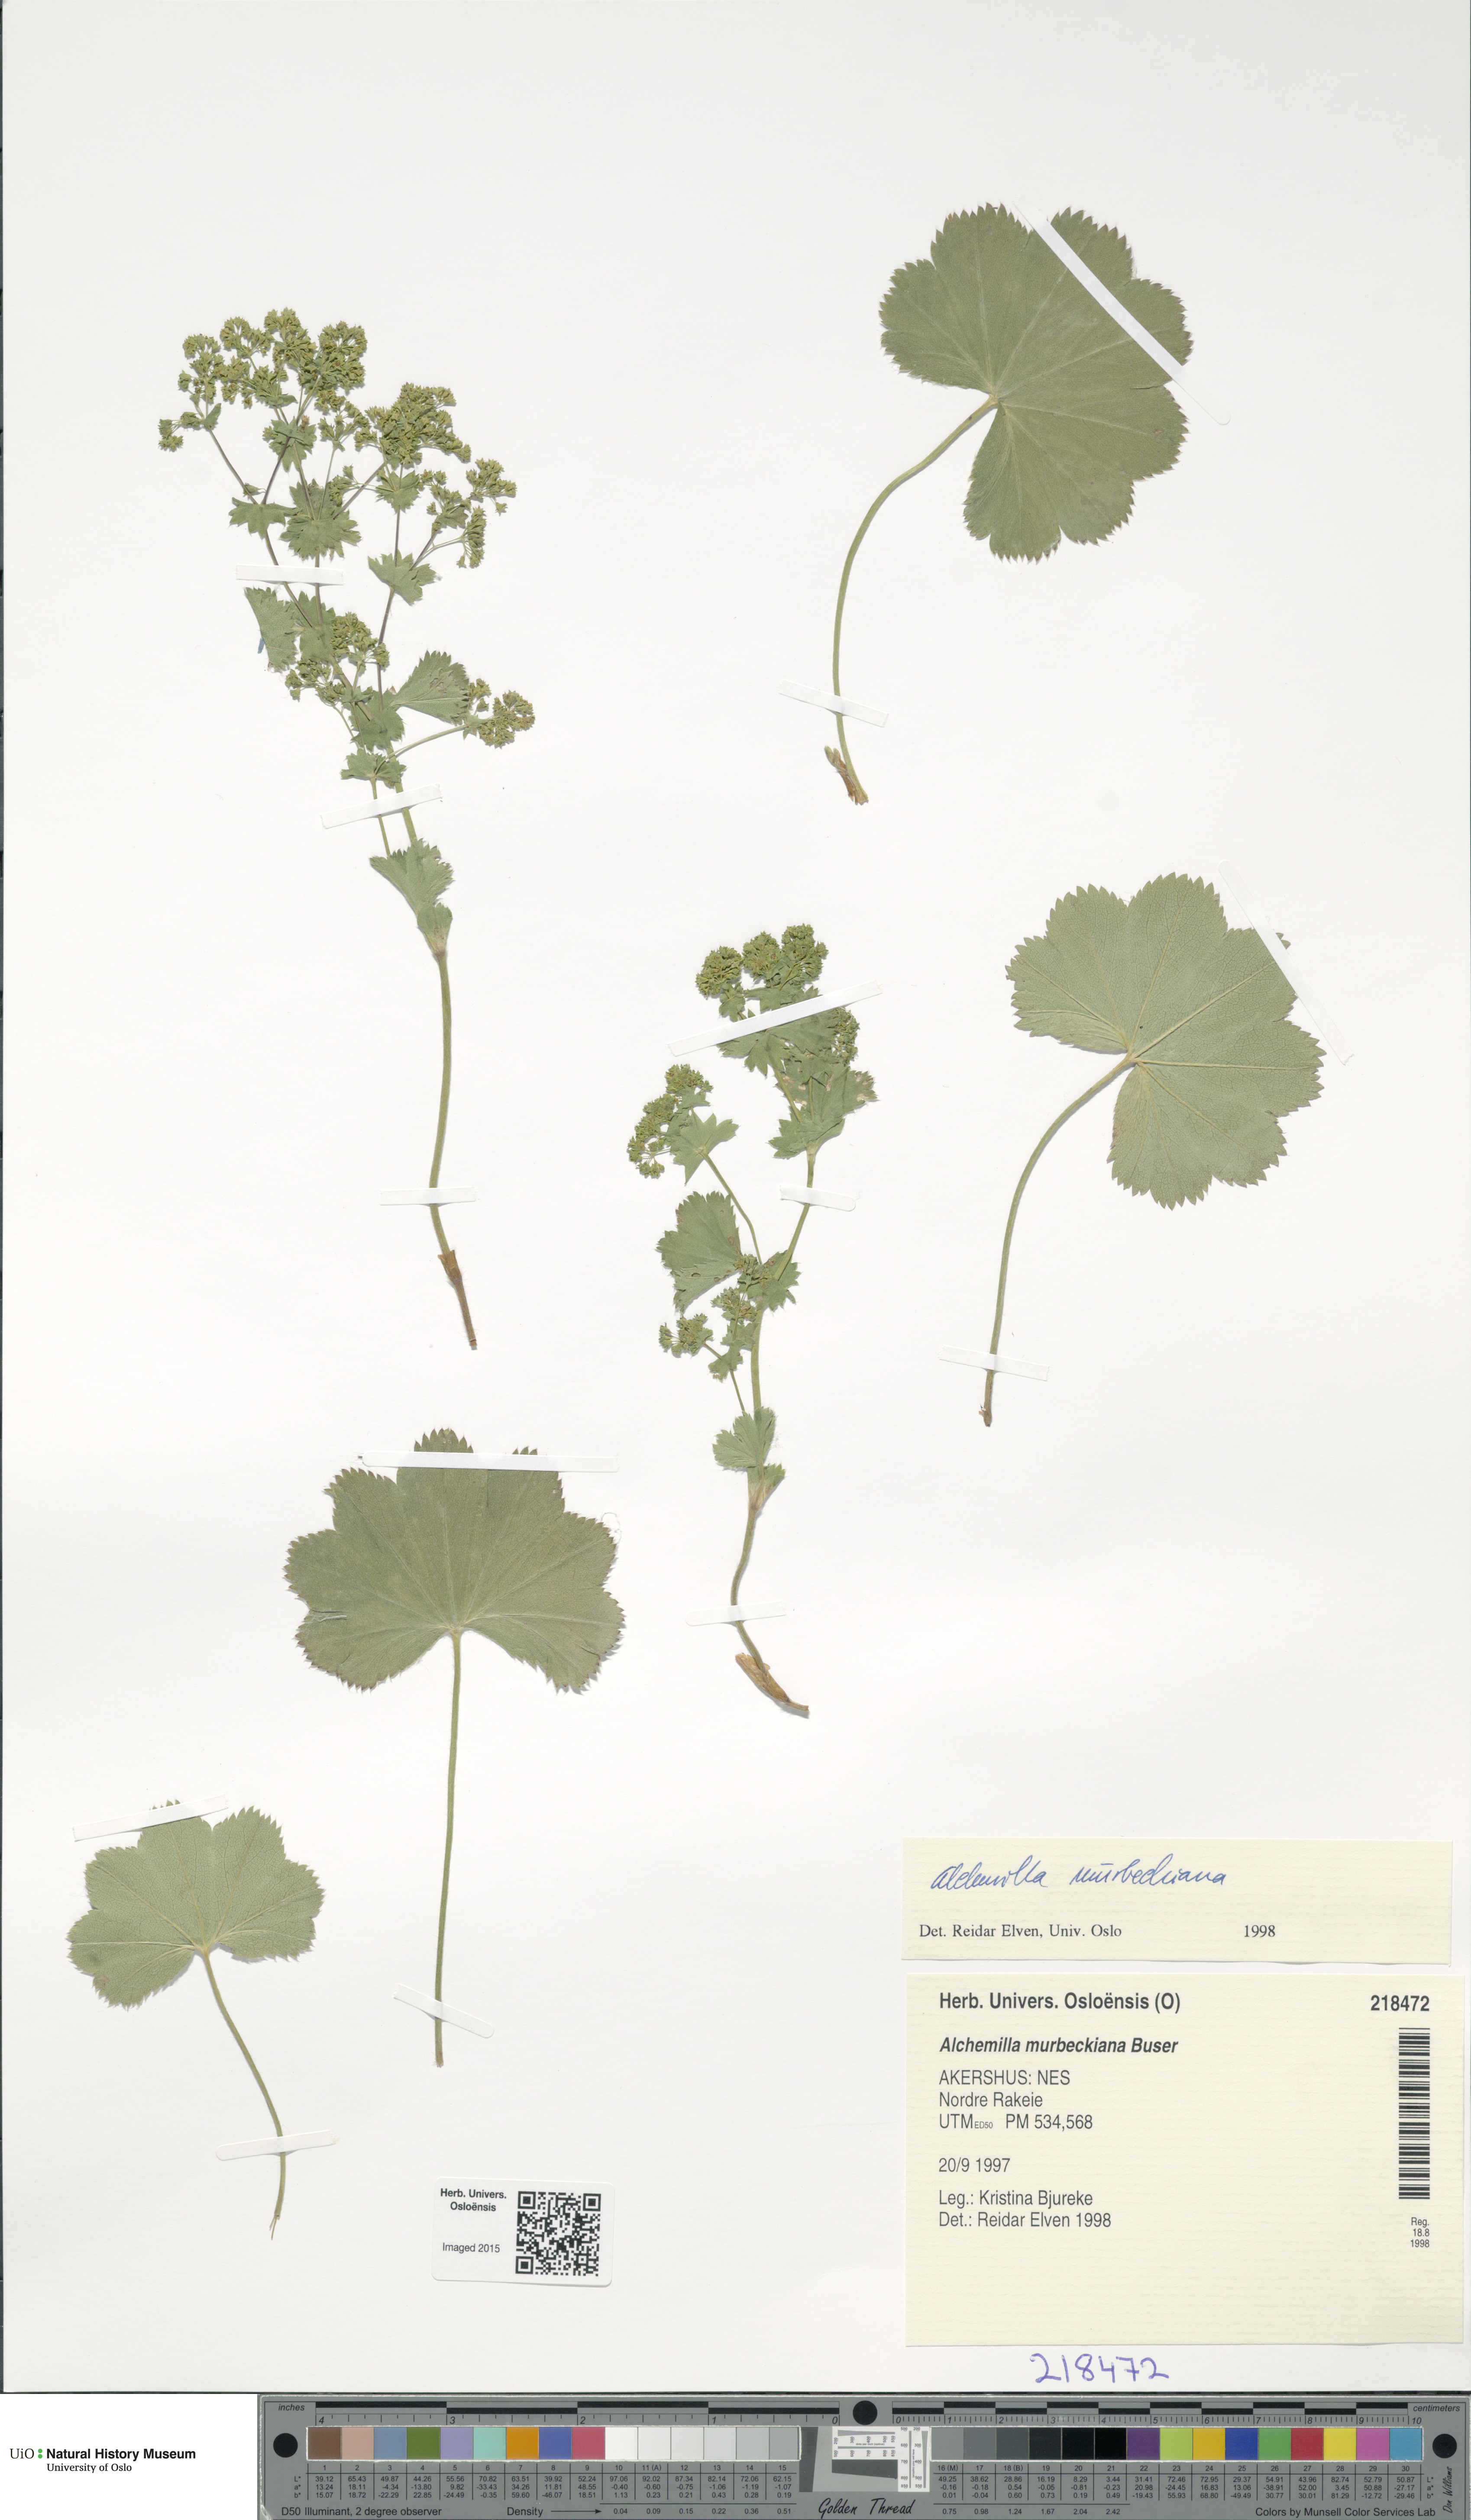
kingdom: Plantae
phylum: Tracheophyta
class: Magnoliopsida
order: Rosales
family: Rosaceae
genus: Alchemilla
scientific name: Alchemilla murbeckiana
